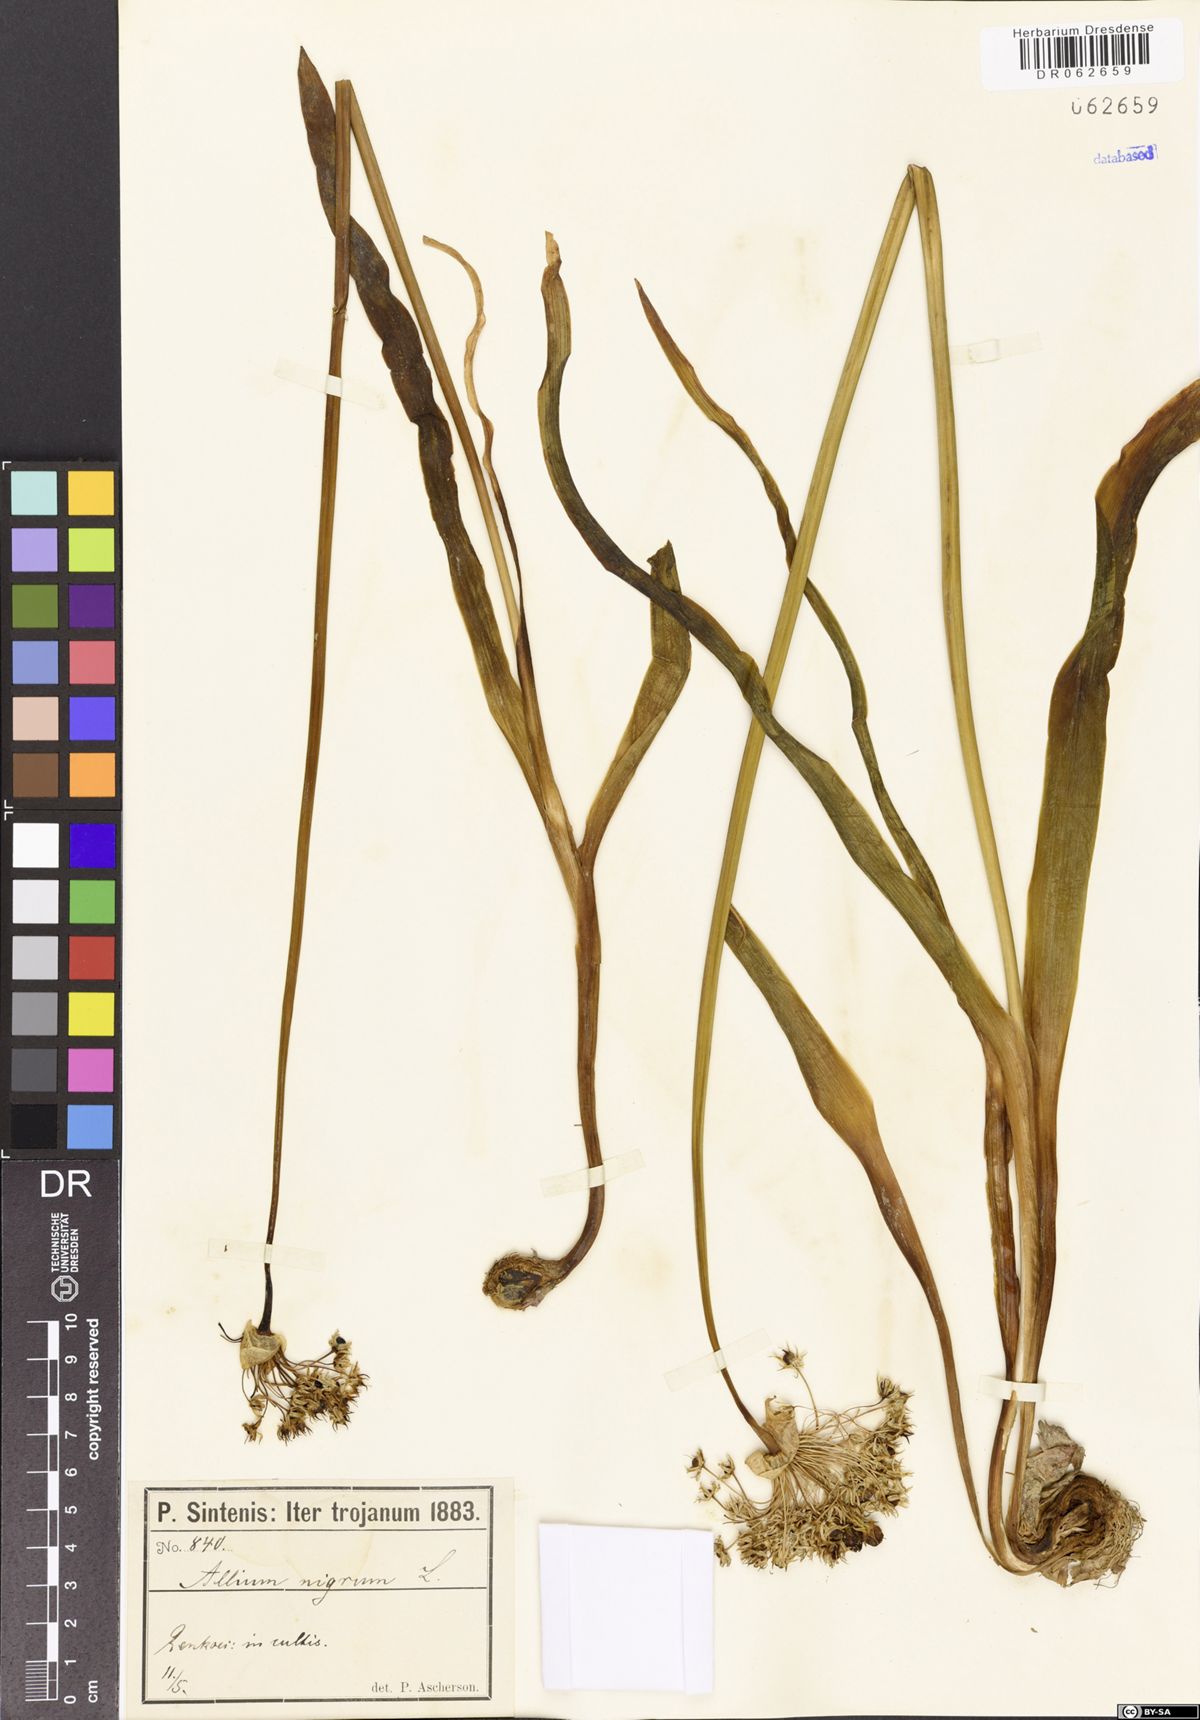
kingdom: Plantae
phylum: Tracheophyta
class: Liliopsida
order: Asparagales
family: Amaryllidaceae
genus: Allium
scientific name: Allium nigrum
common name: Black garlic
